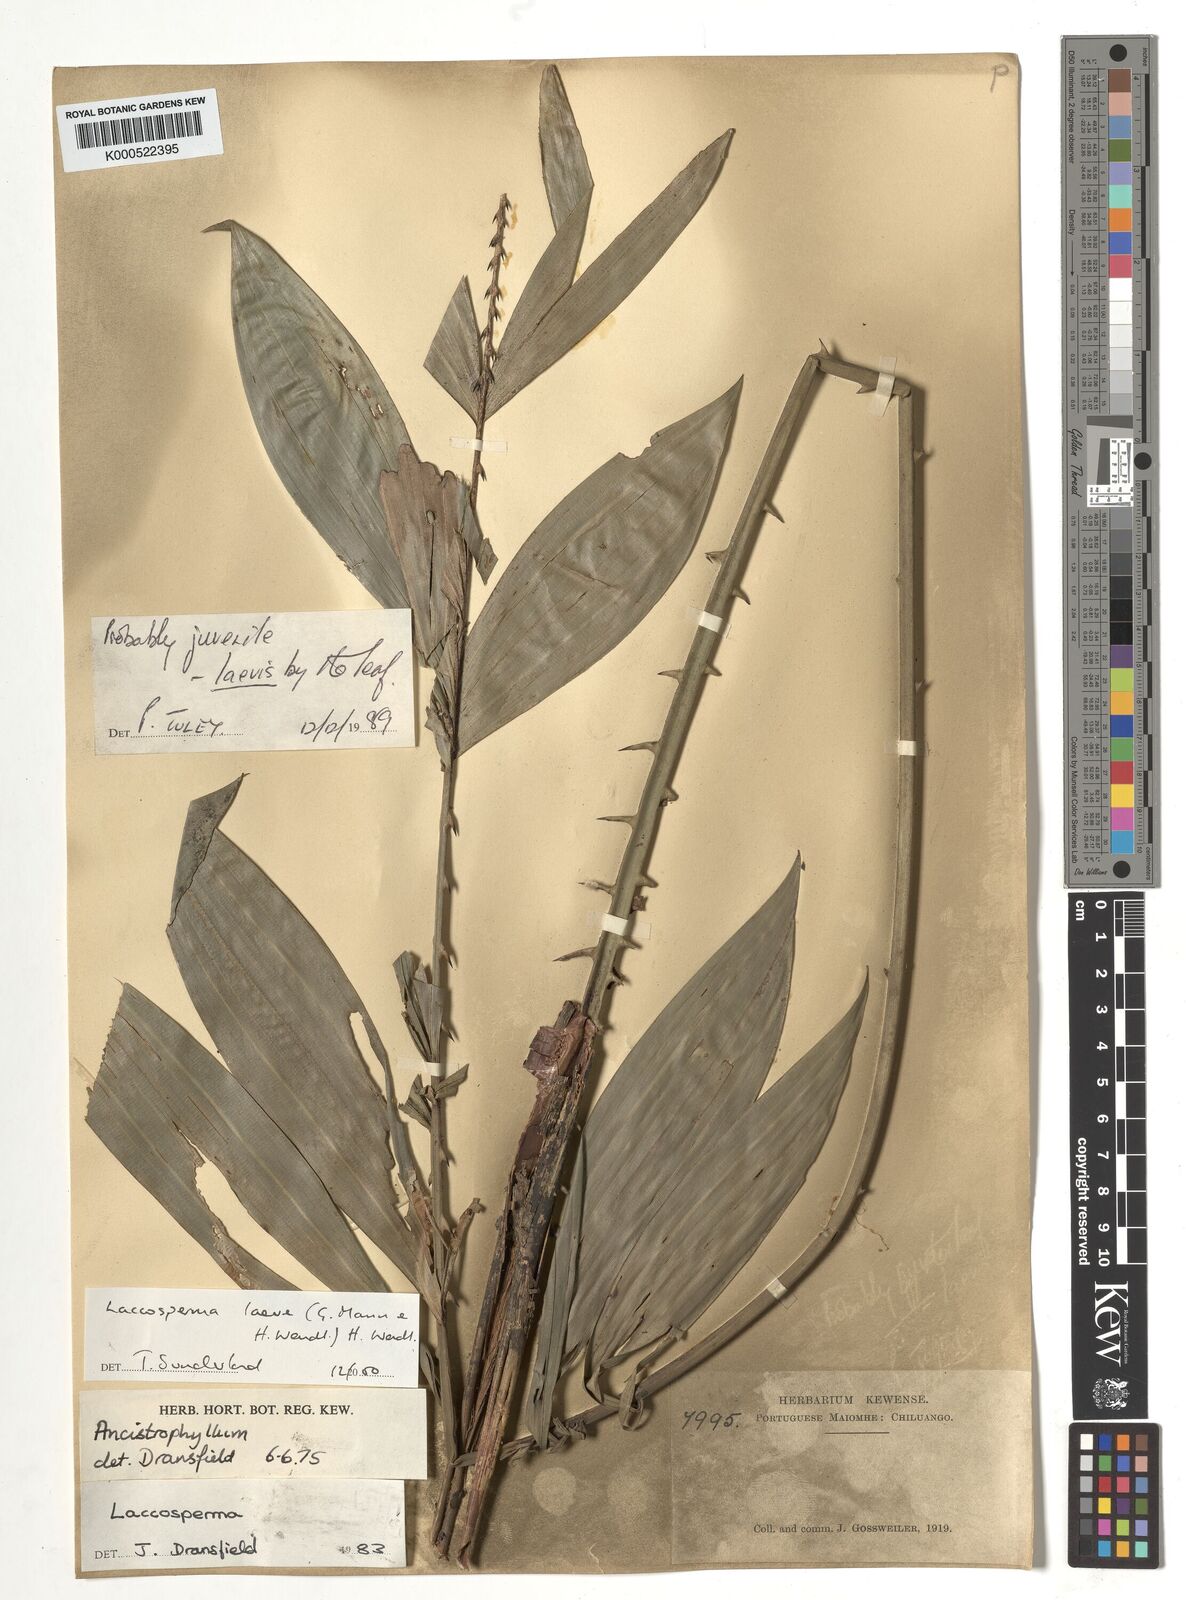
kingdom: Plantae
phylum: Tracheophyta
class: Liliopsida
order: Arecales
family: Arecaceae
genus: Laccosperma
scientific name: Laccosperma laeve
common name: Rattan
